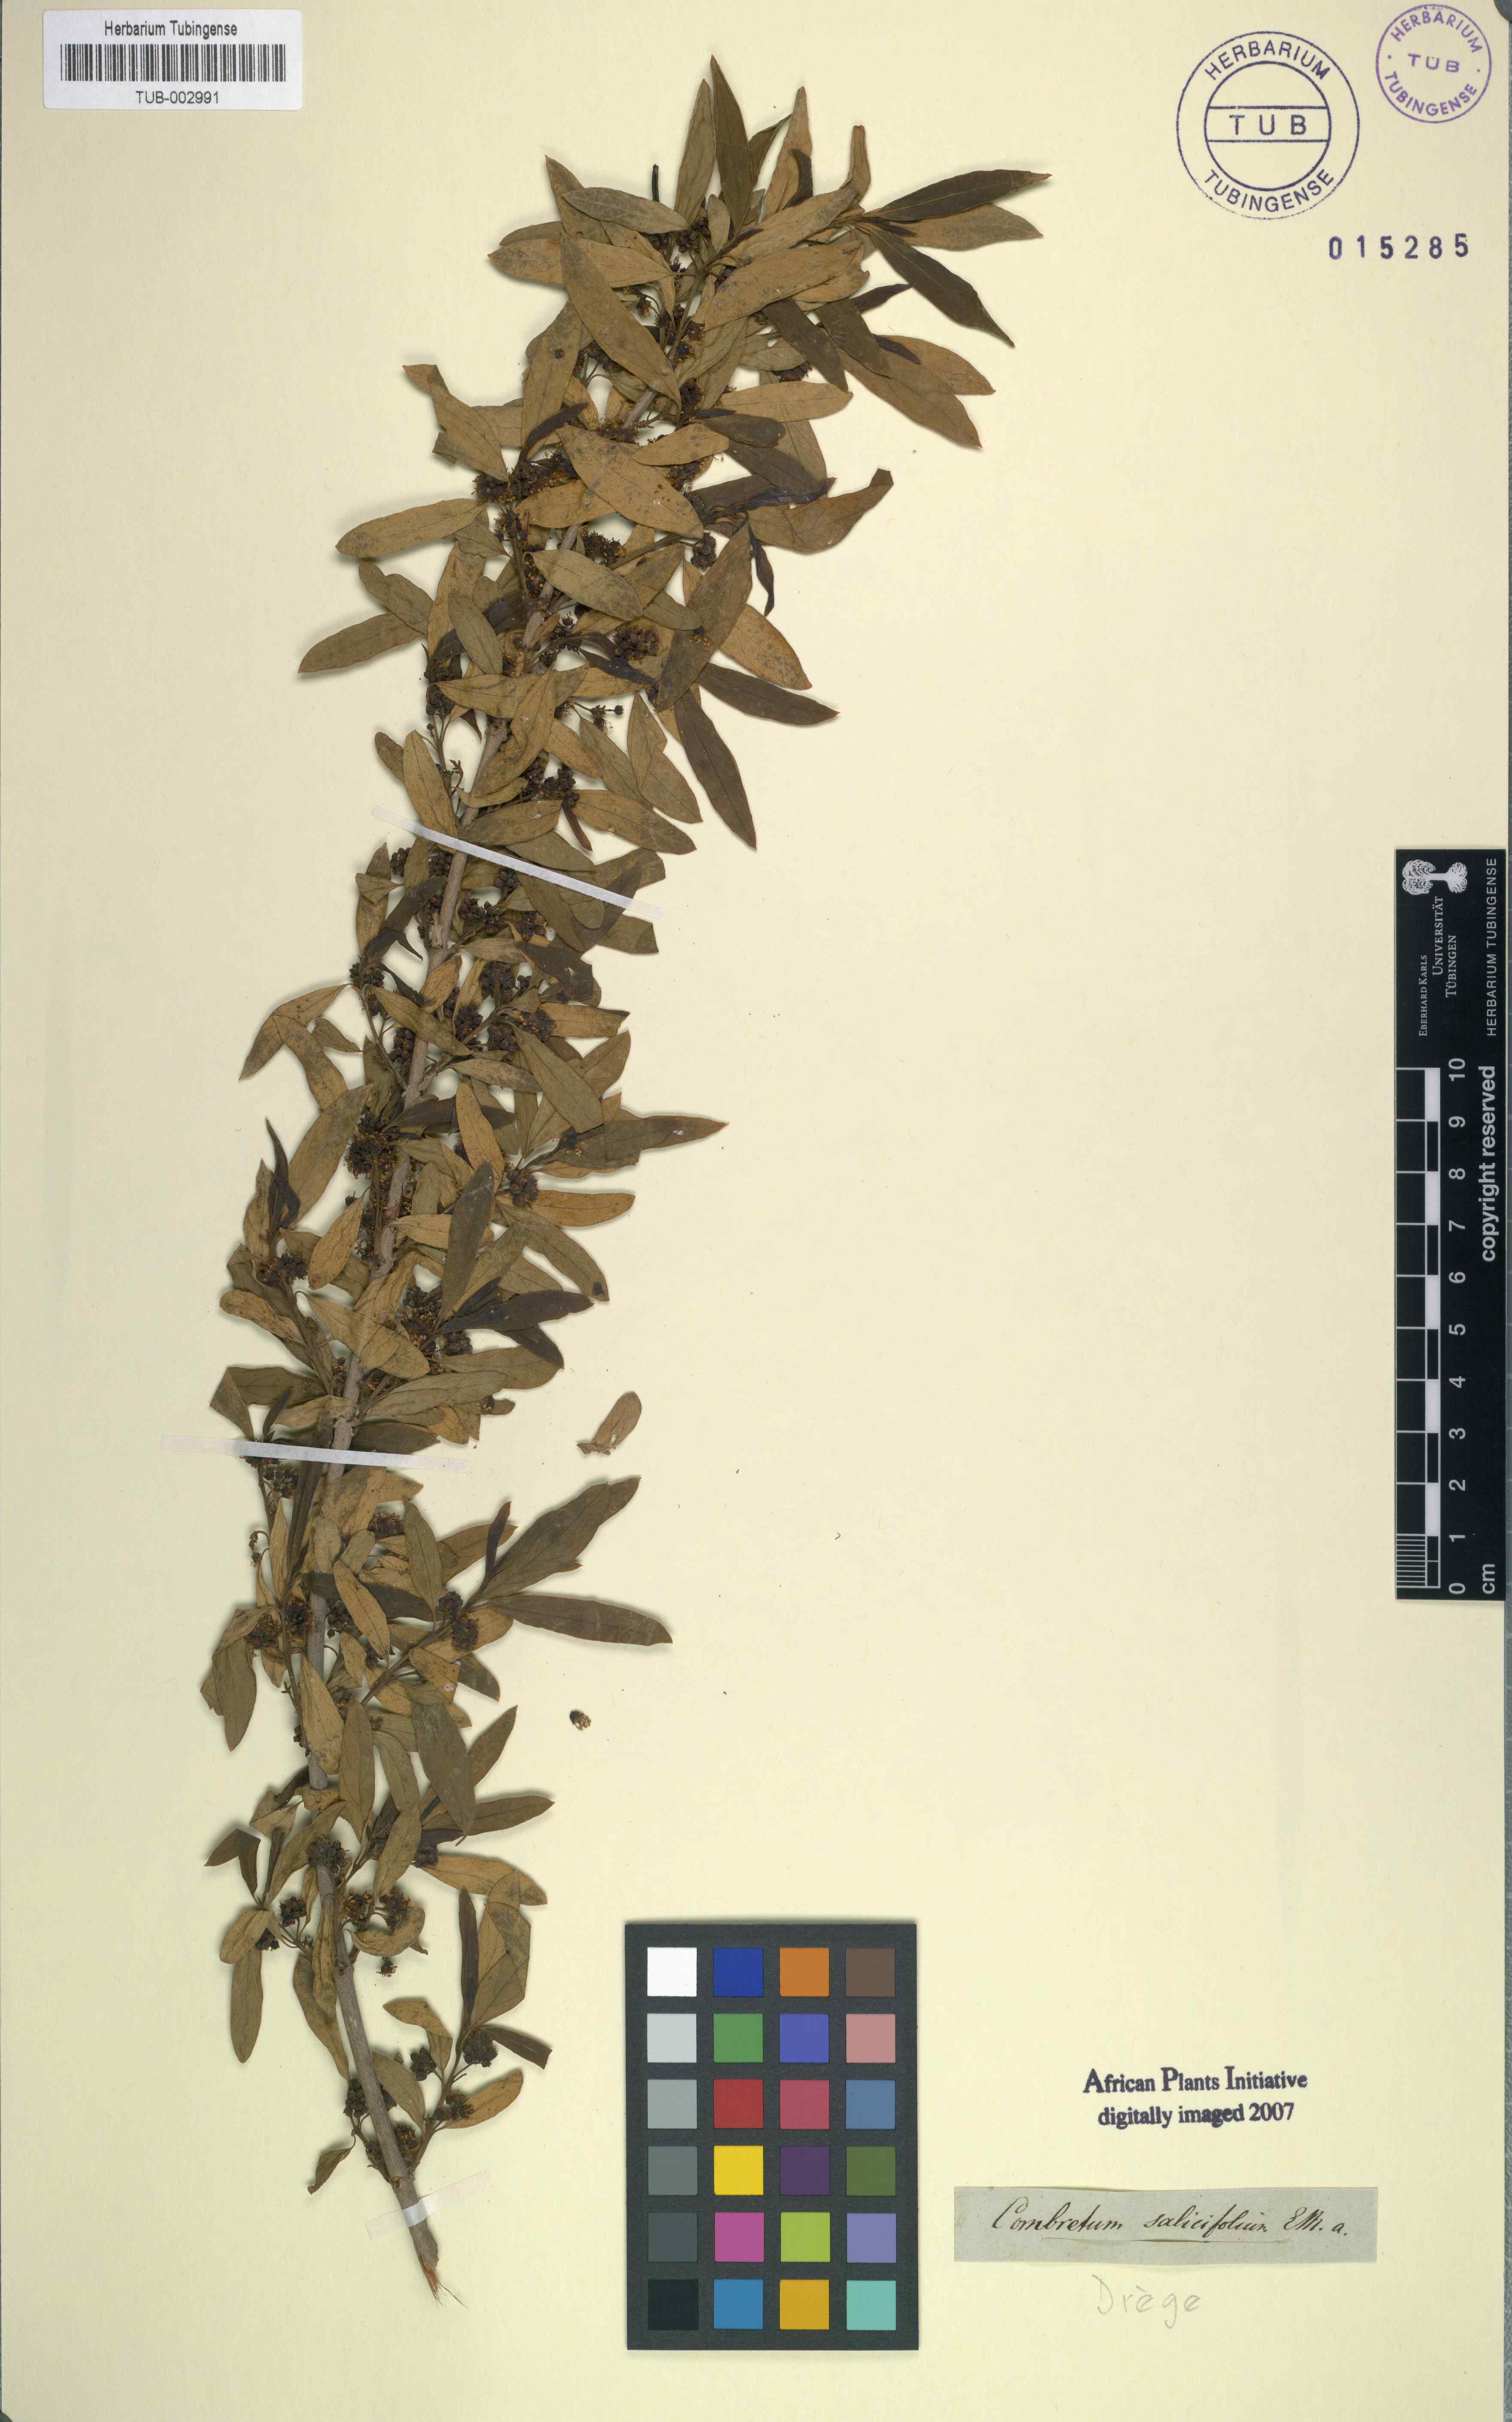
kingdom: Plantae
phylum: Tracheophyta
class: Magnoliopsida
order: Myrtales
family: Combretaceae
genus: Combretum
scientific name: Combretum caffrum
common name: Cape bushwillow
